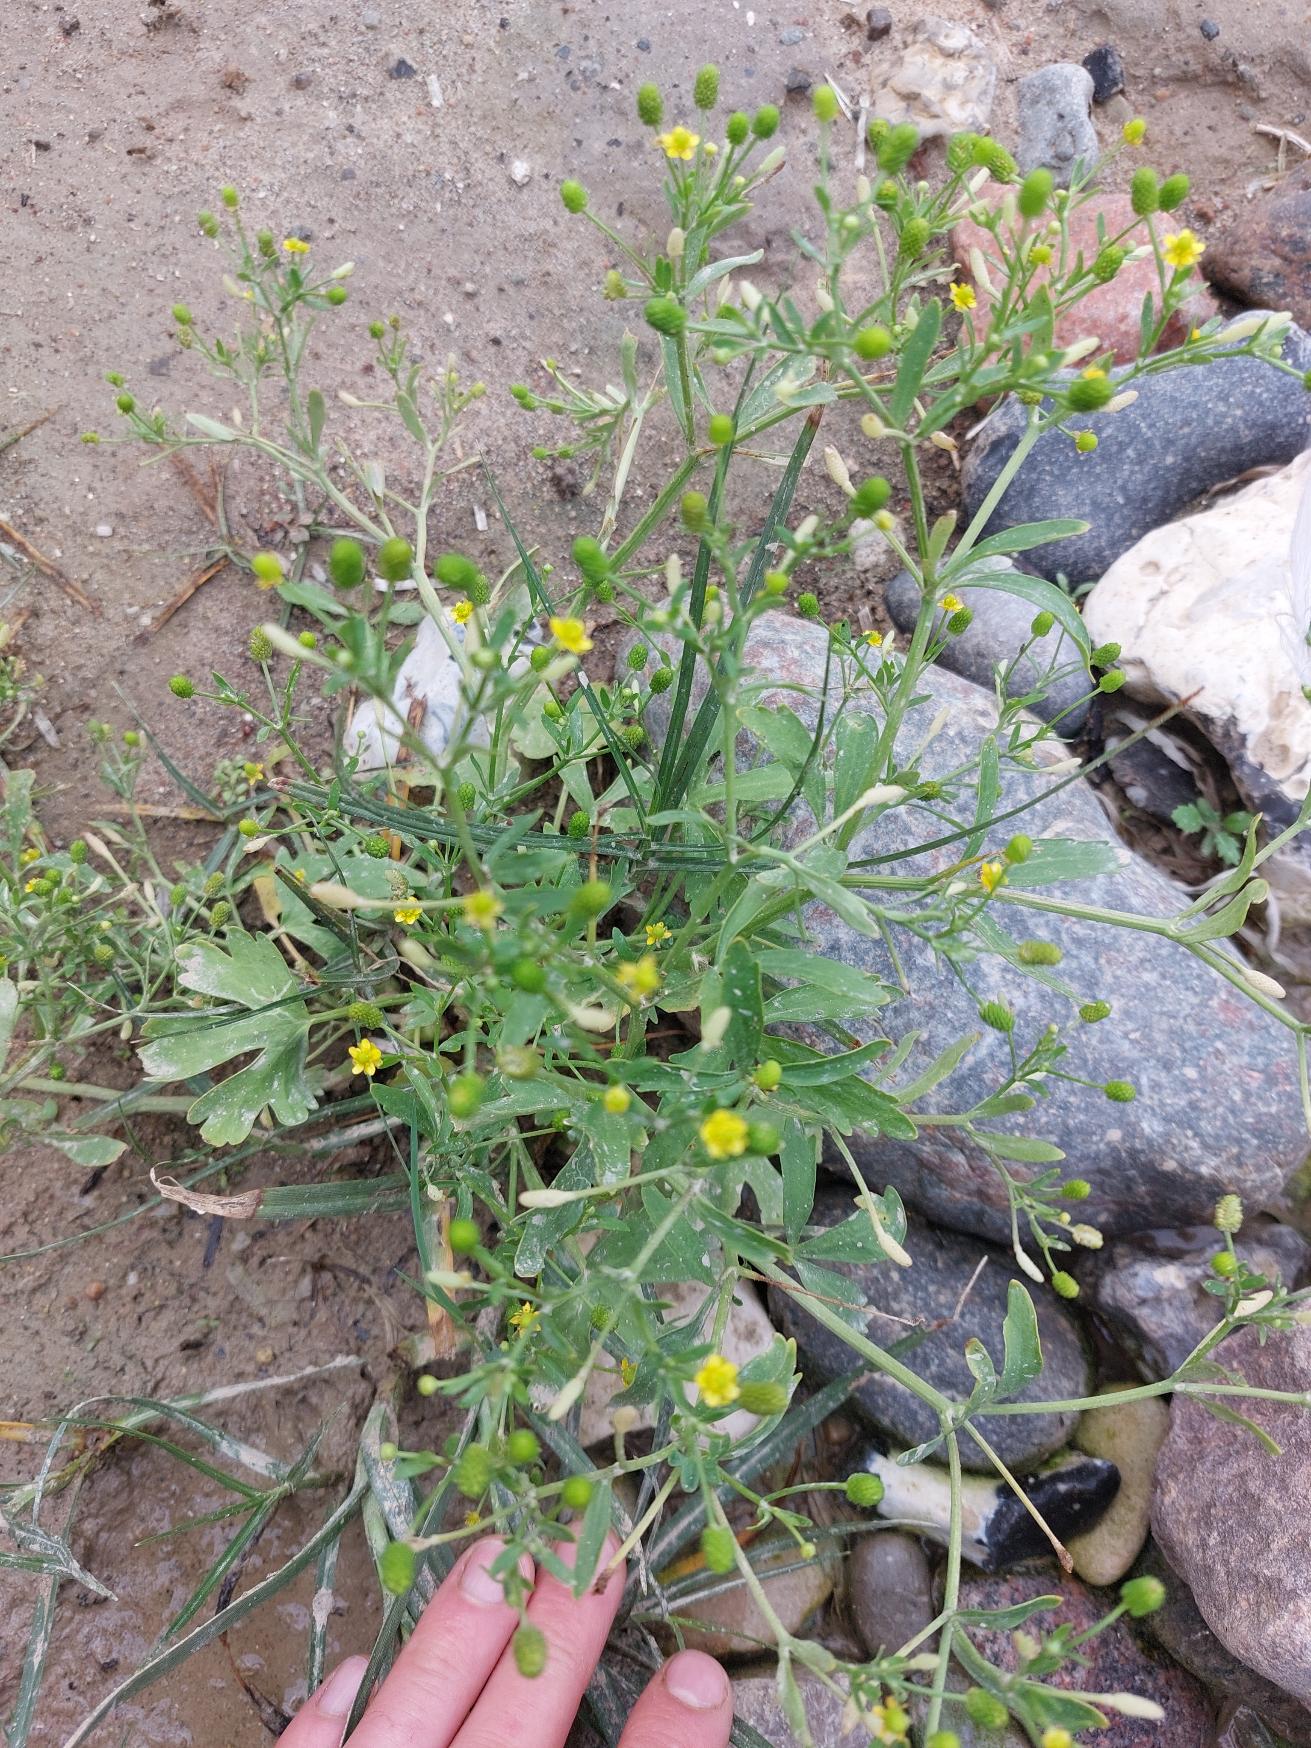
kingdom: Plantae
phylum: Tracheophyta
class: Magnoliopsida
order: Ranunculales
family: Ranunculaceae
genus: Ranunculus
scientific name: Ranunculus sceleratus
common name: Tigger-ranunkel
